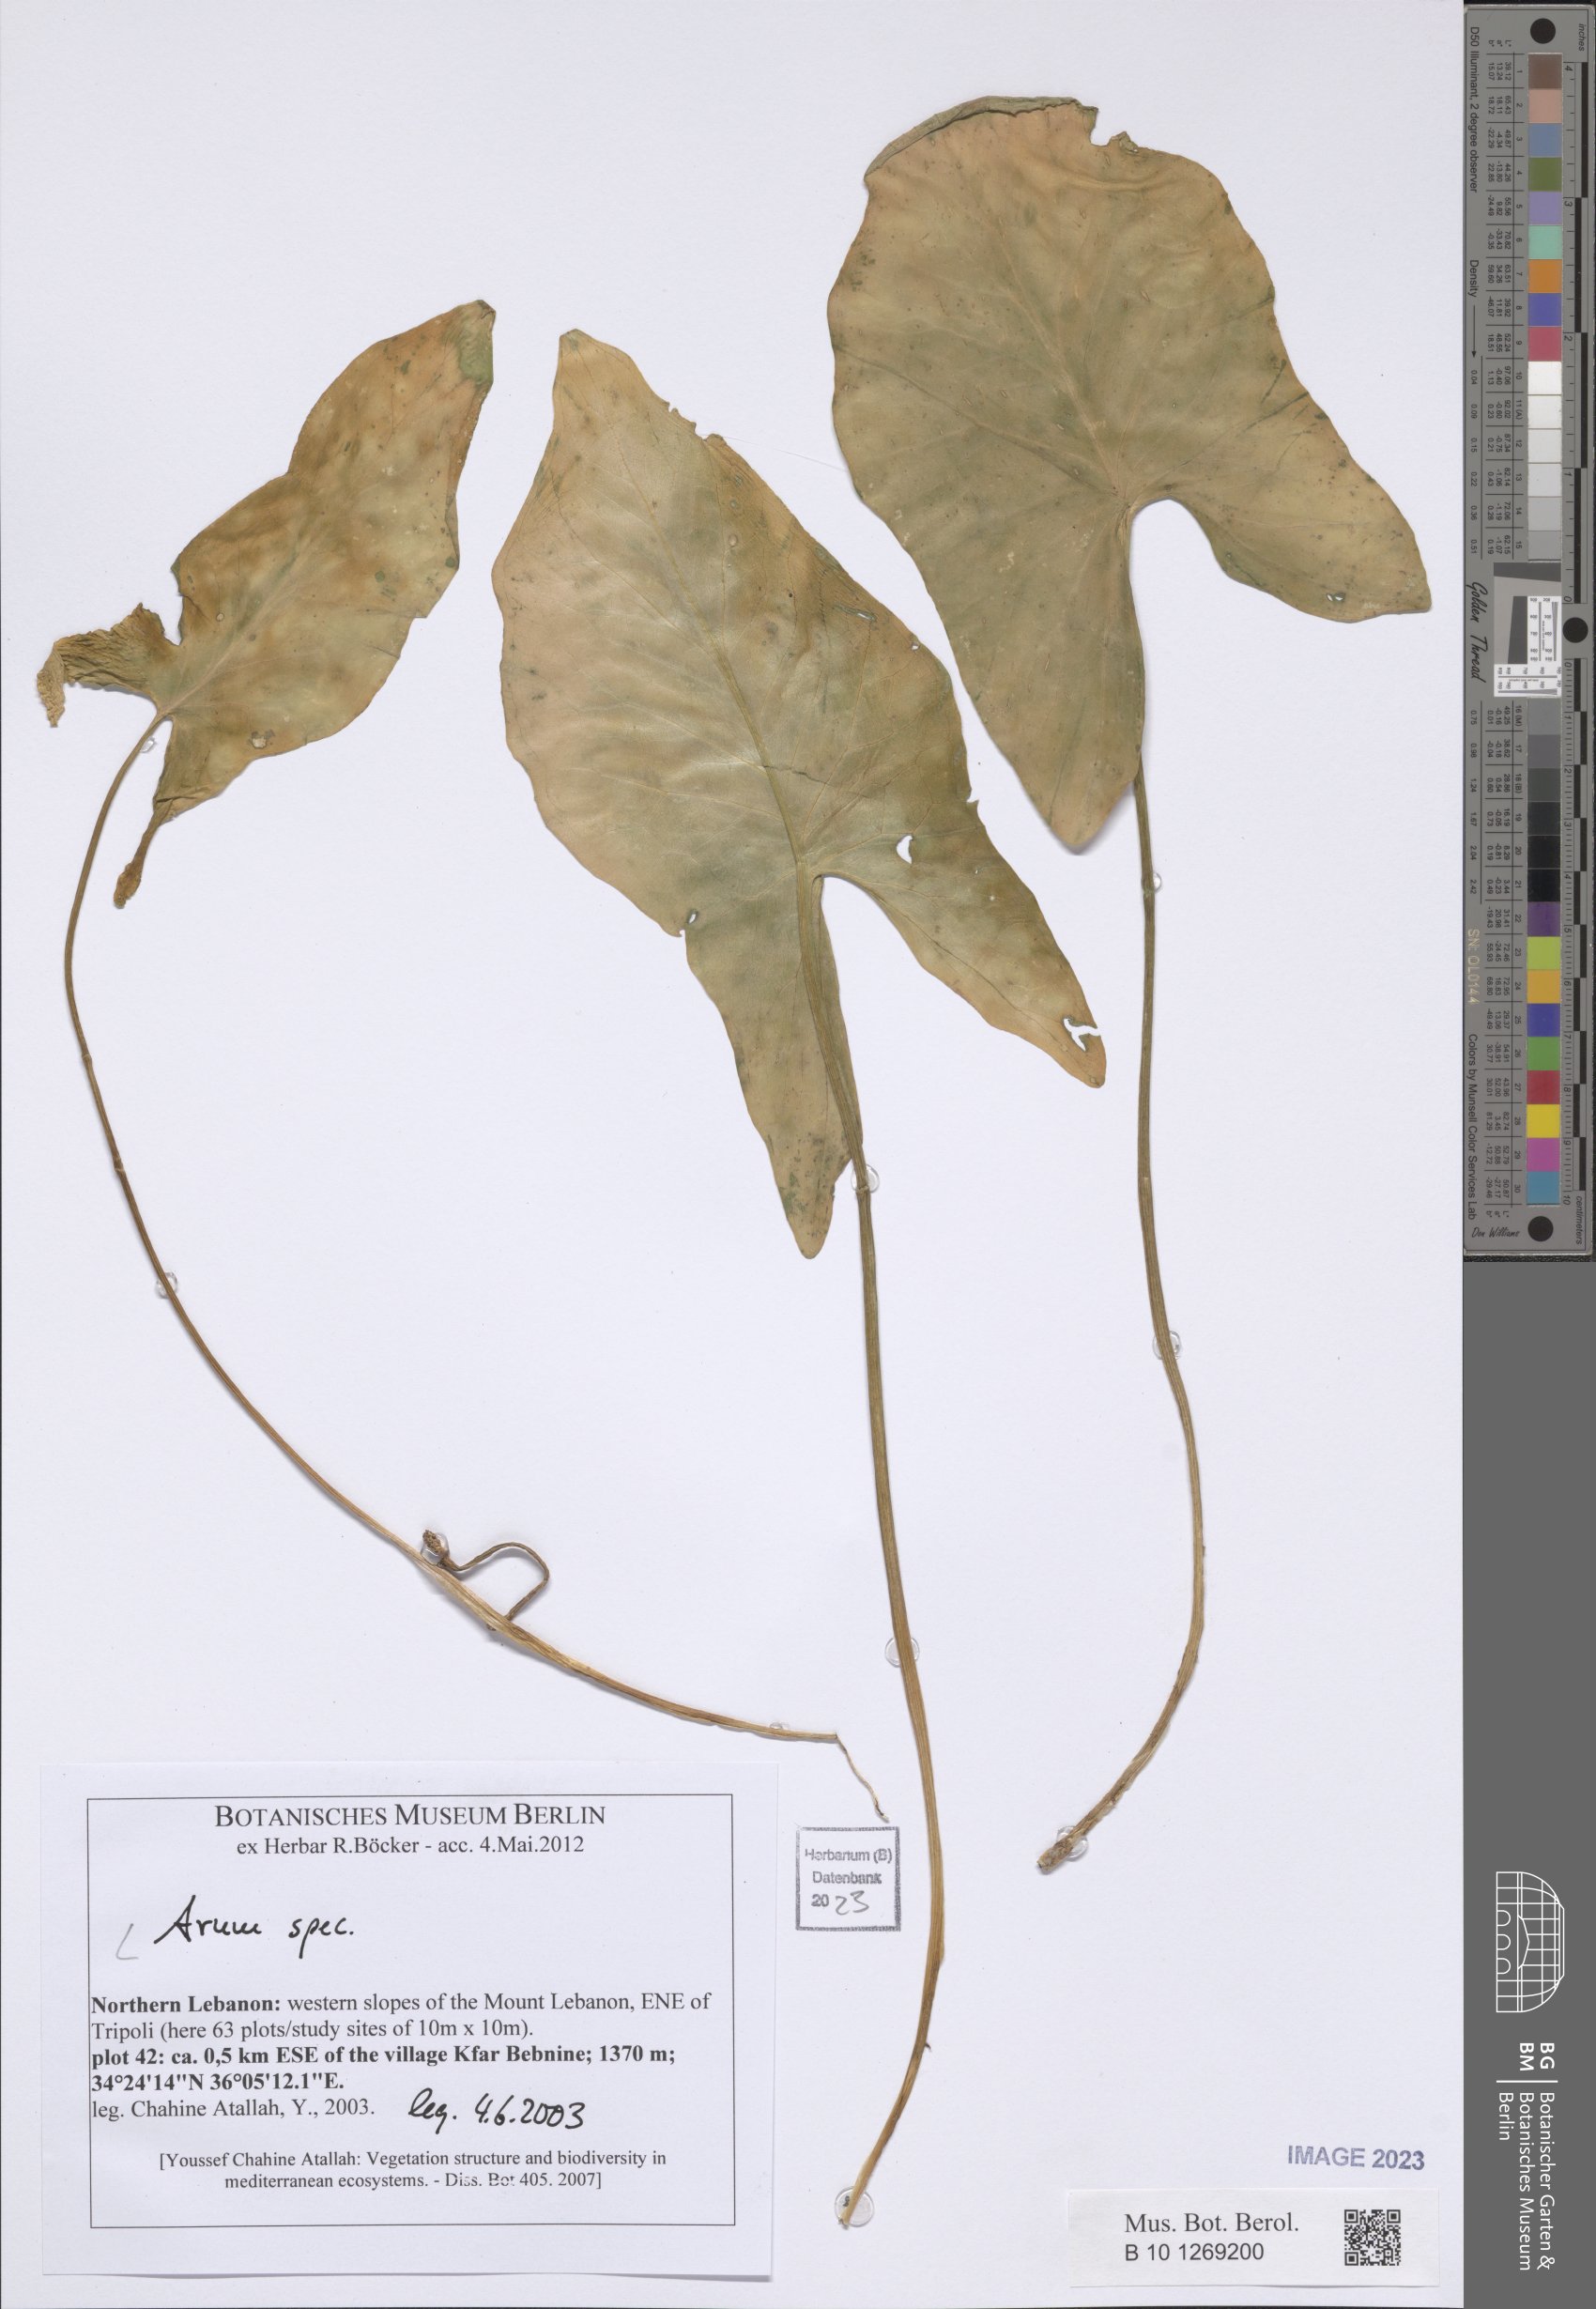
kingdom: Plantae
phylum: Tracheophyta
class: Liliopsida
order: Alismatales
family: Araceae
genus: Arum
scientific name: Arum
